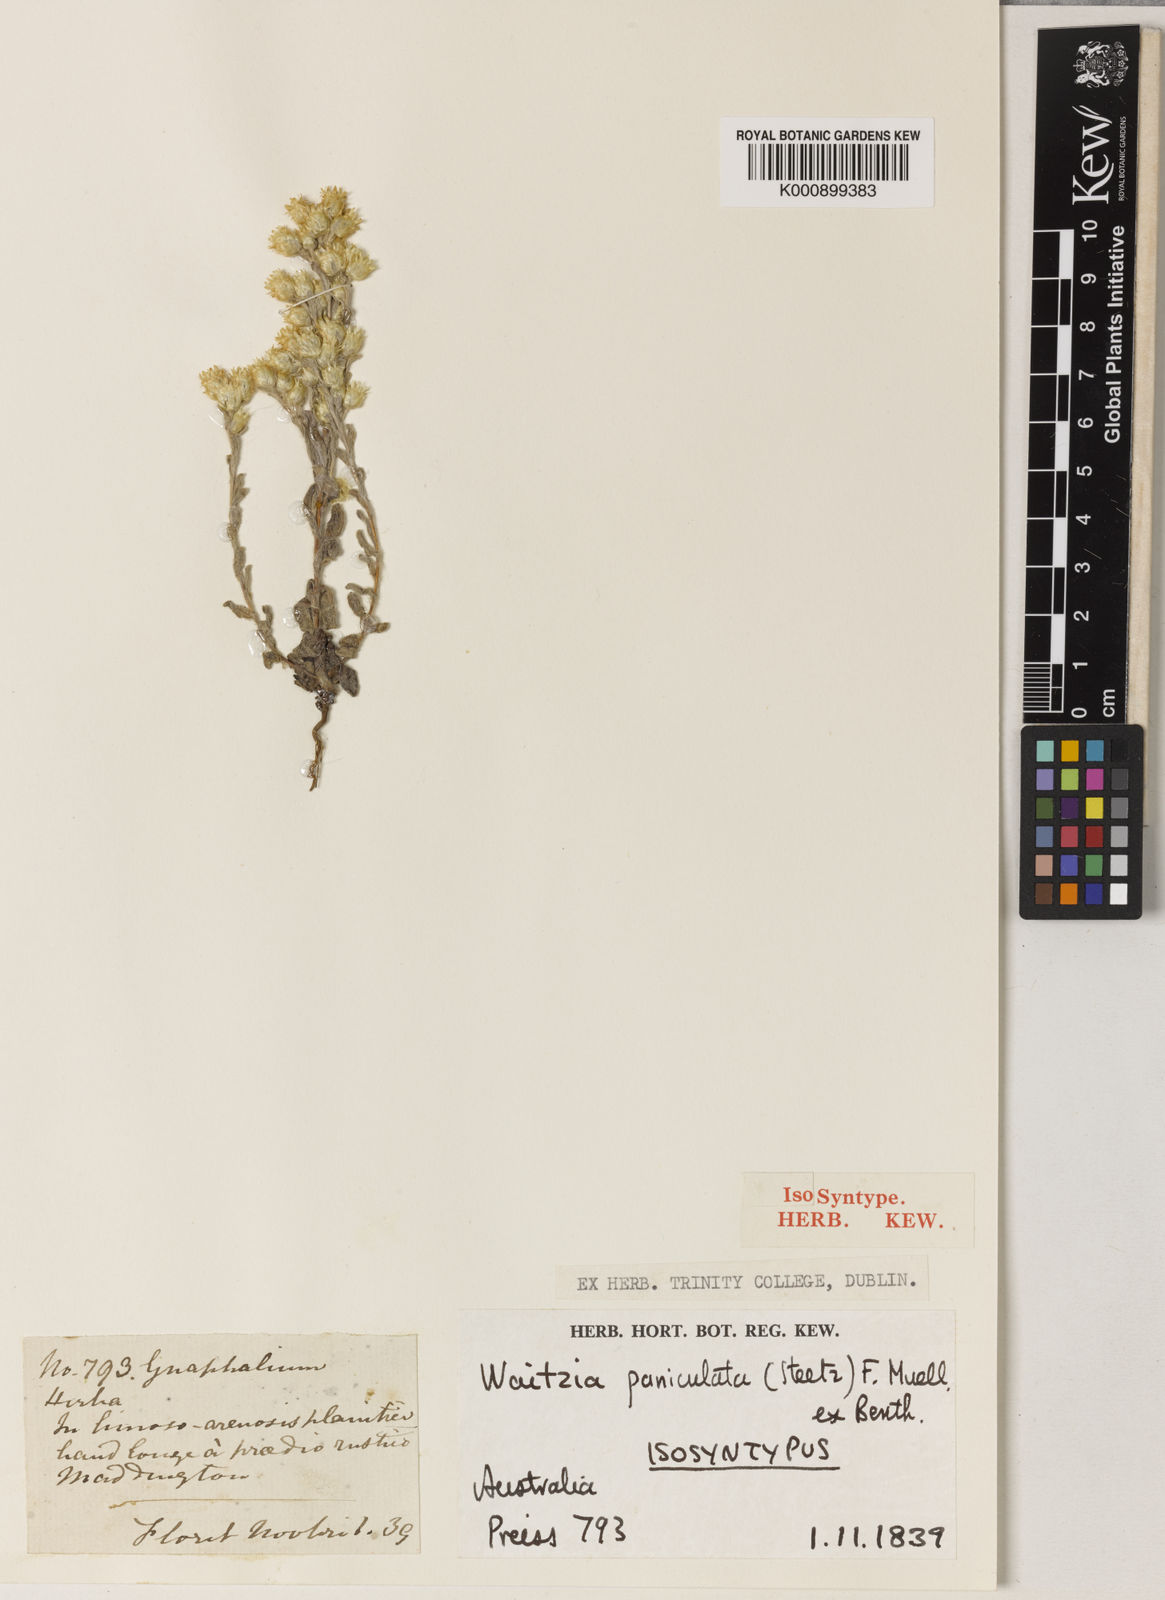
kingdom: Plantae
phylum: Tracheophyta
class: Magnoliopsida
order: Asterales
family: Asteraceae
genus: Pterochaeta
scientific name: Pterochaeta paniculata
